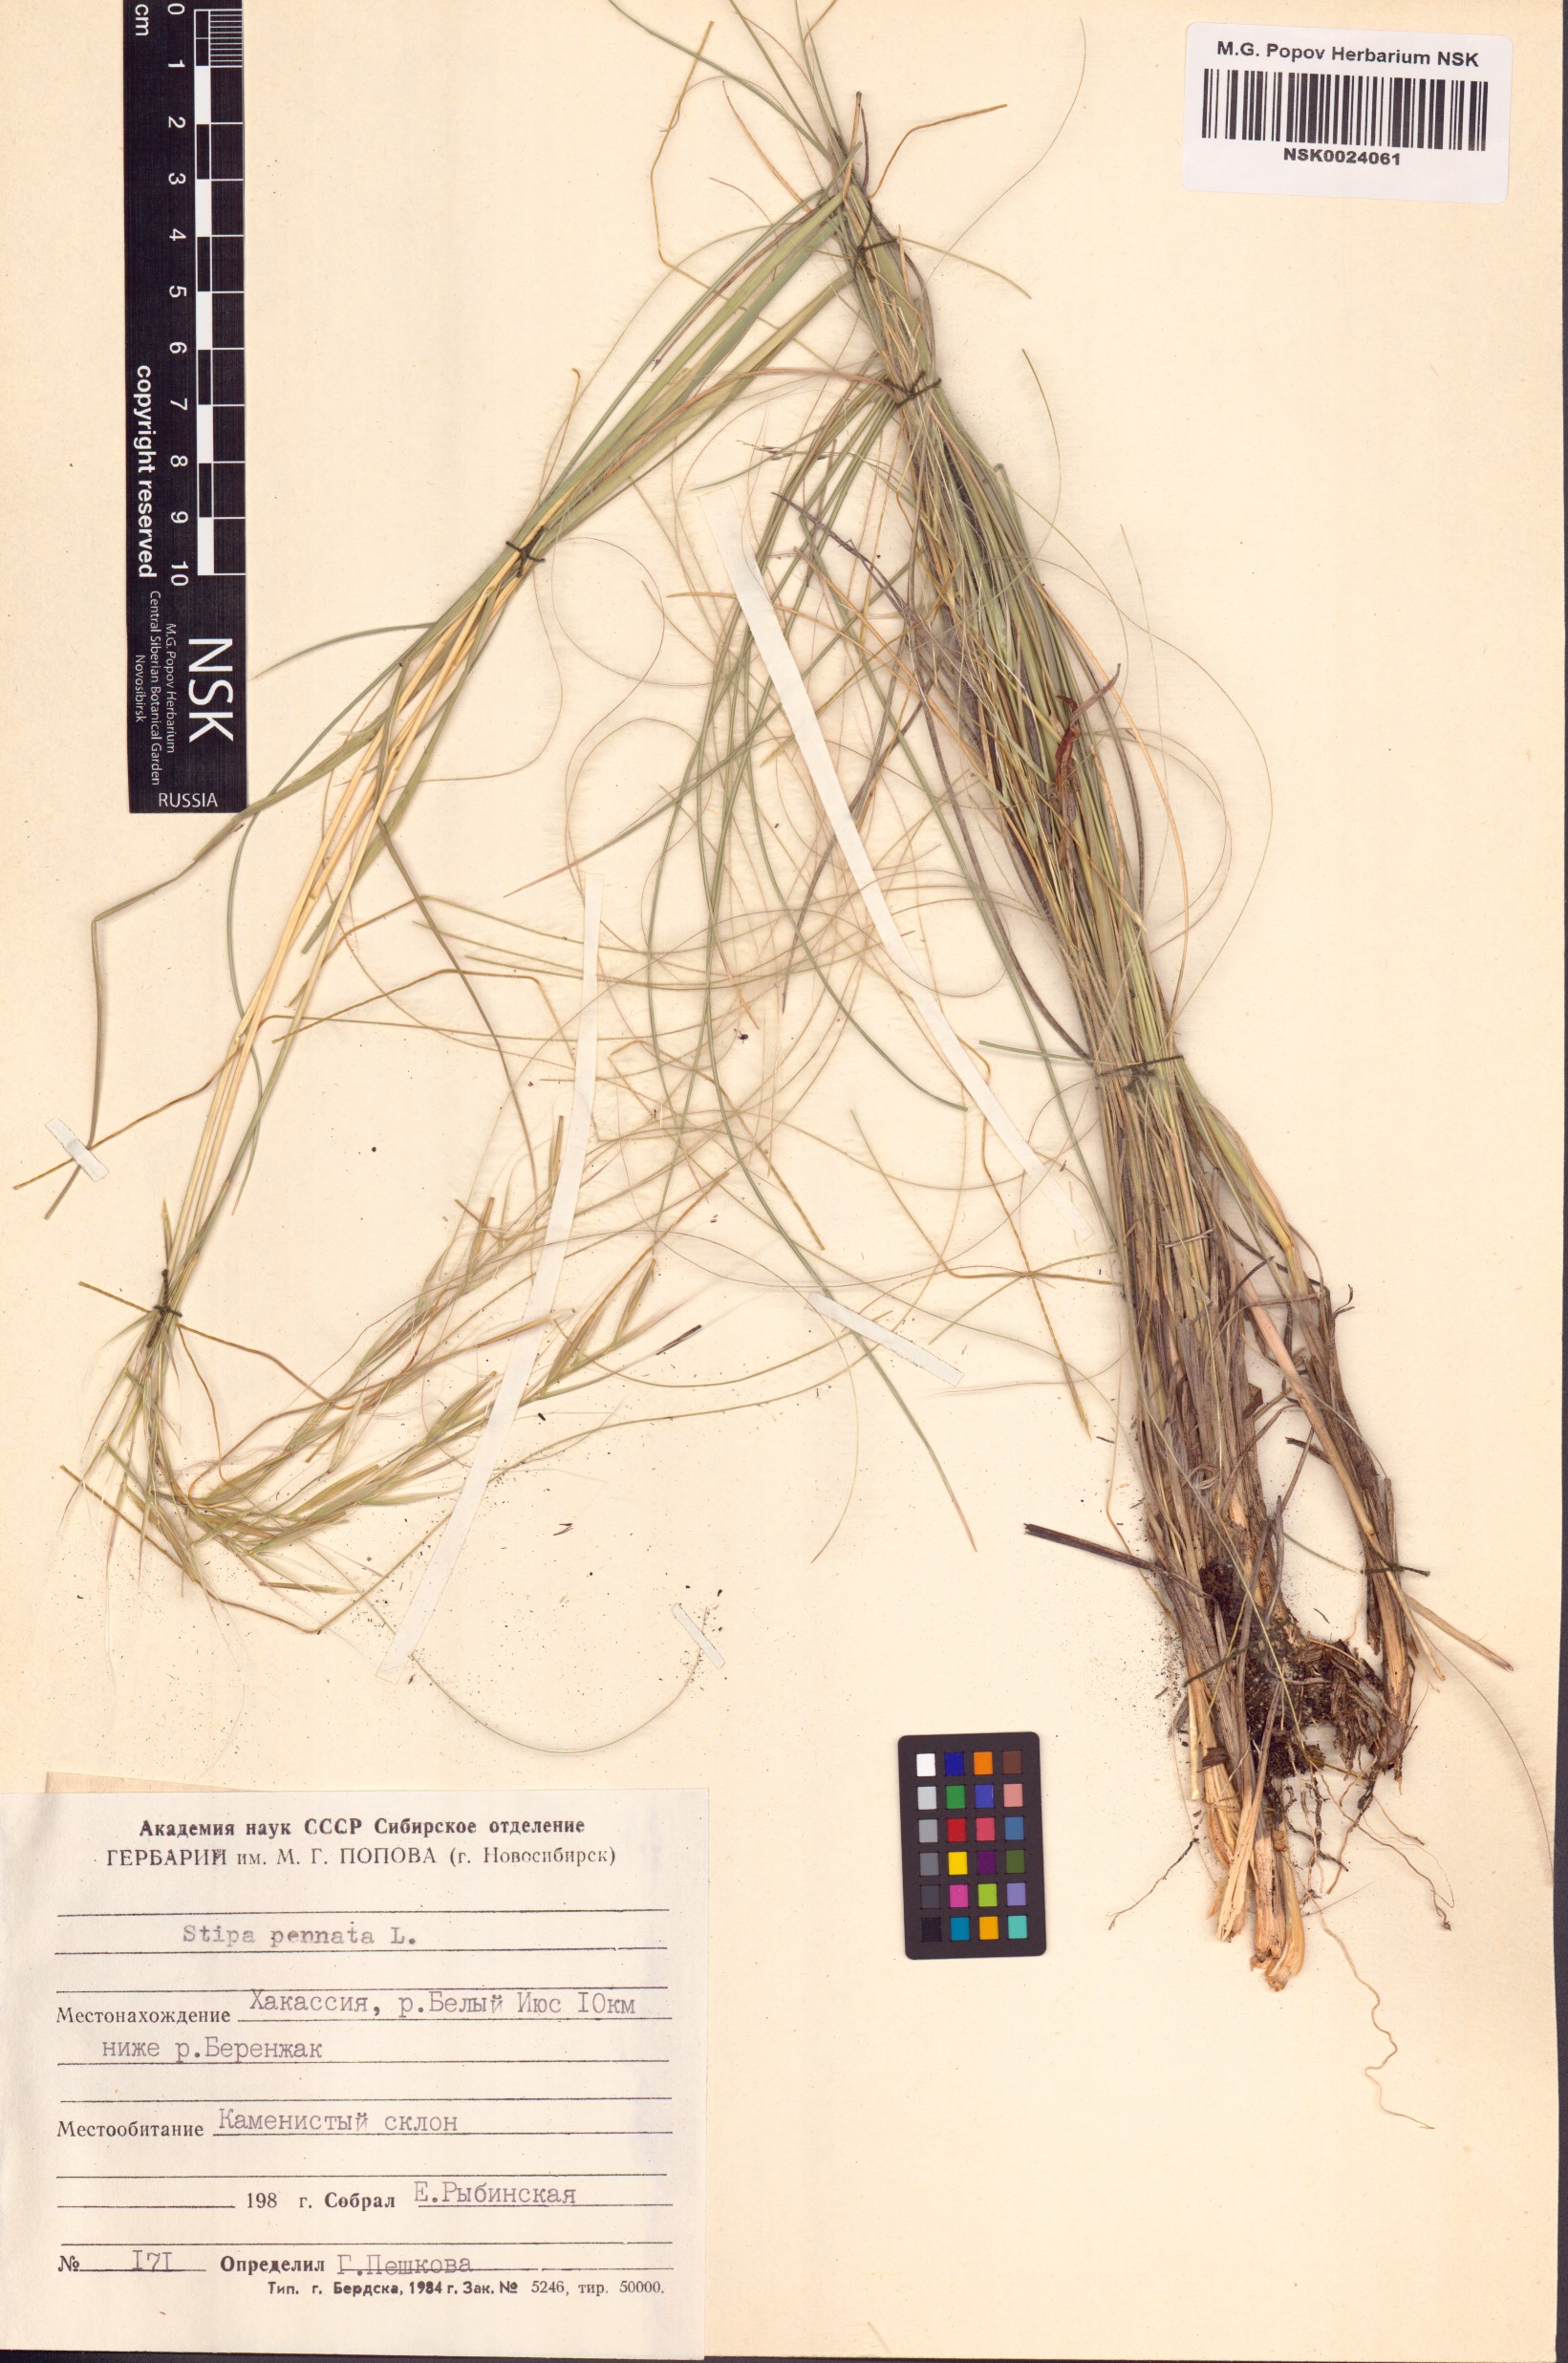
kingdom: Plantae
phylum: Tracheophyta
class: Liliopsida
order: Poales
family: Poaceae
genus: Stipa
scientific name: Stipa pennata
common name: European feather grass
